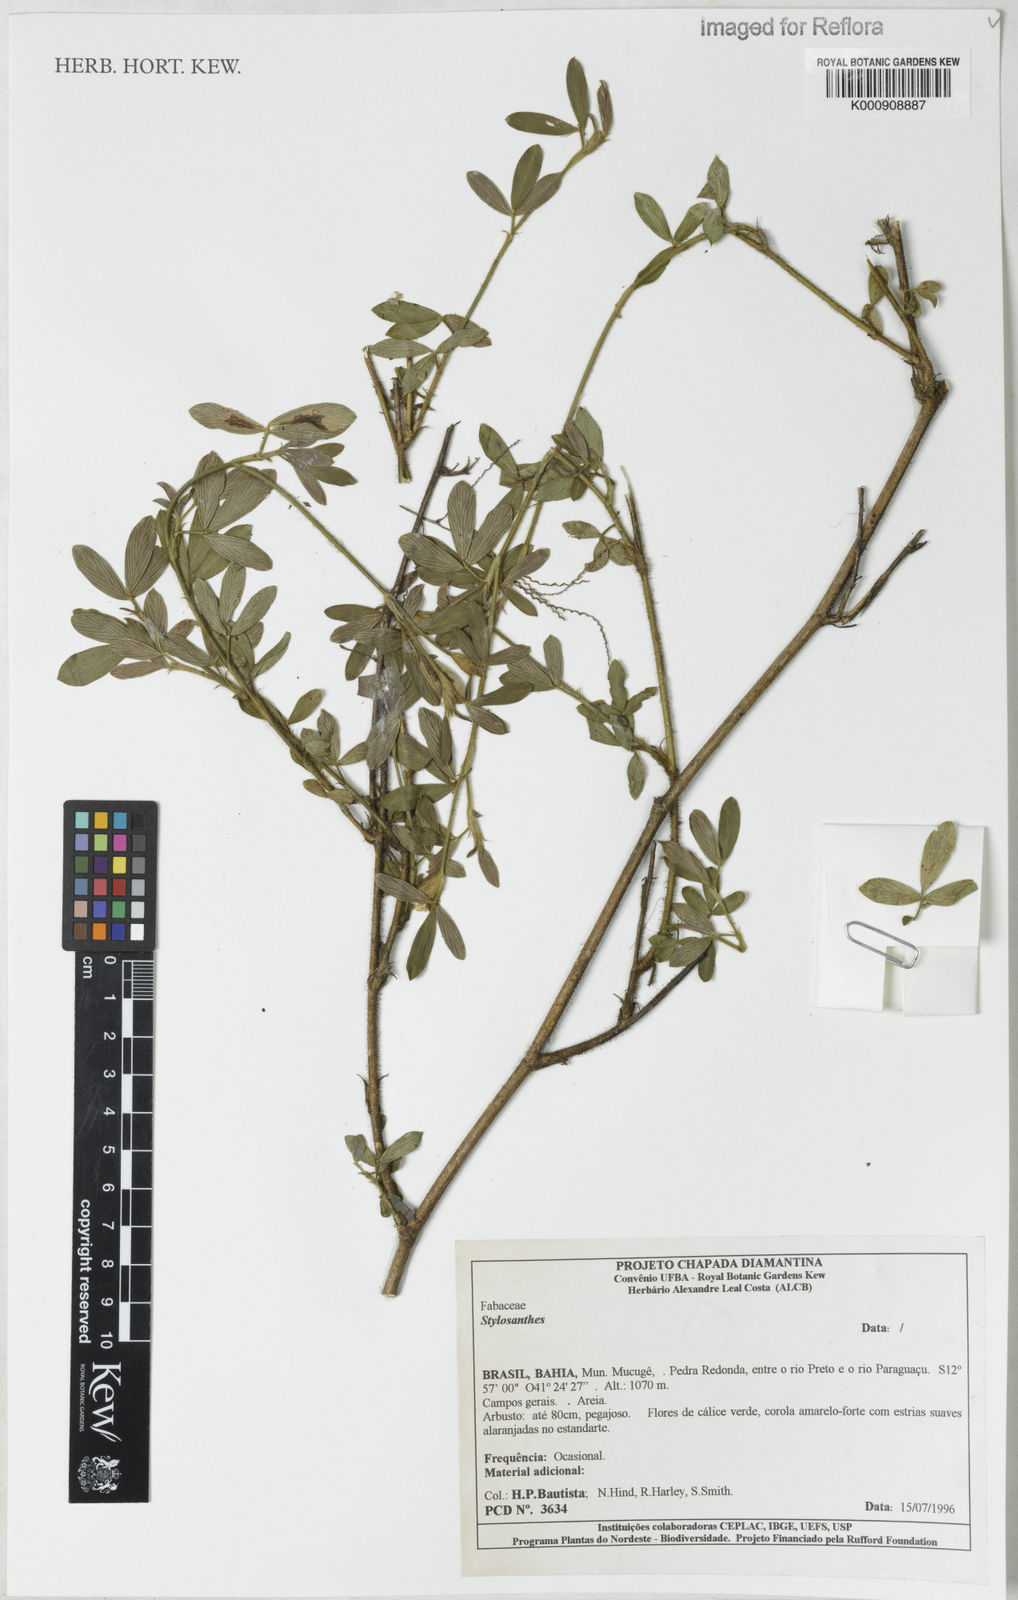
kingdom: Plantae
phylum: Tracheophyta
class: Magnoliopsida
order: Fabales
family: Fabaceae
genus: Stylosanthes
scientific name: Stylosanthes
